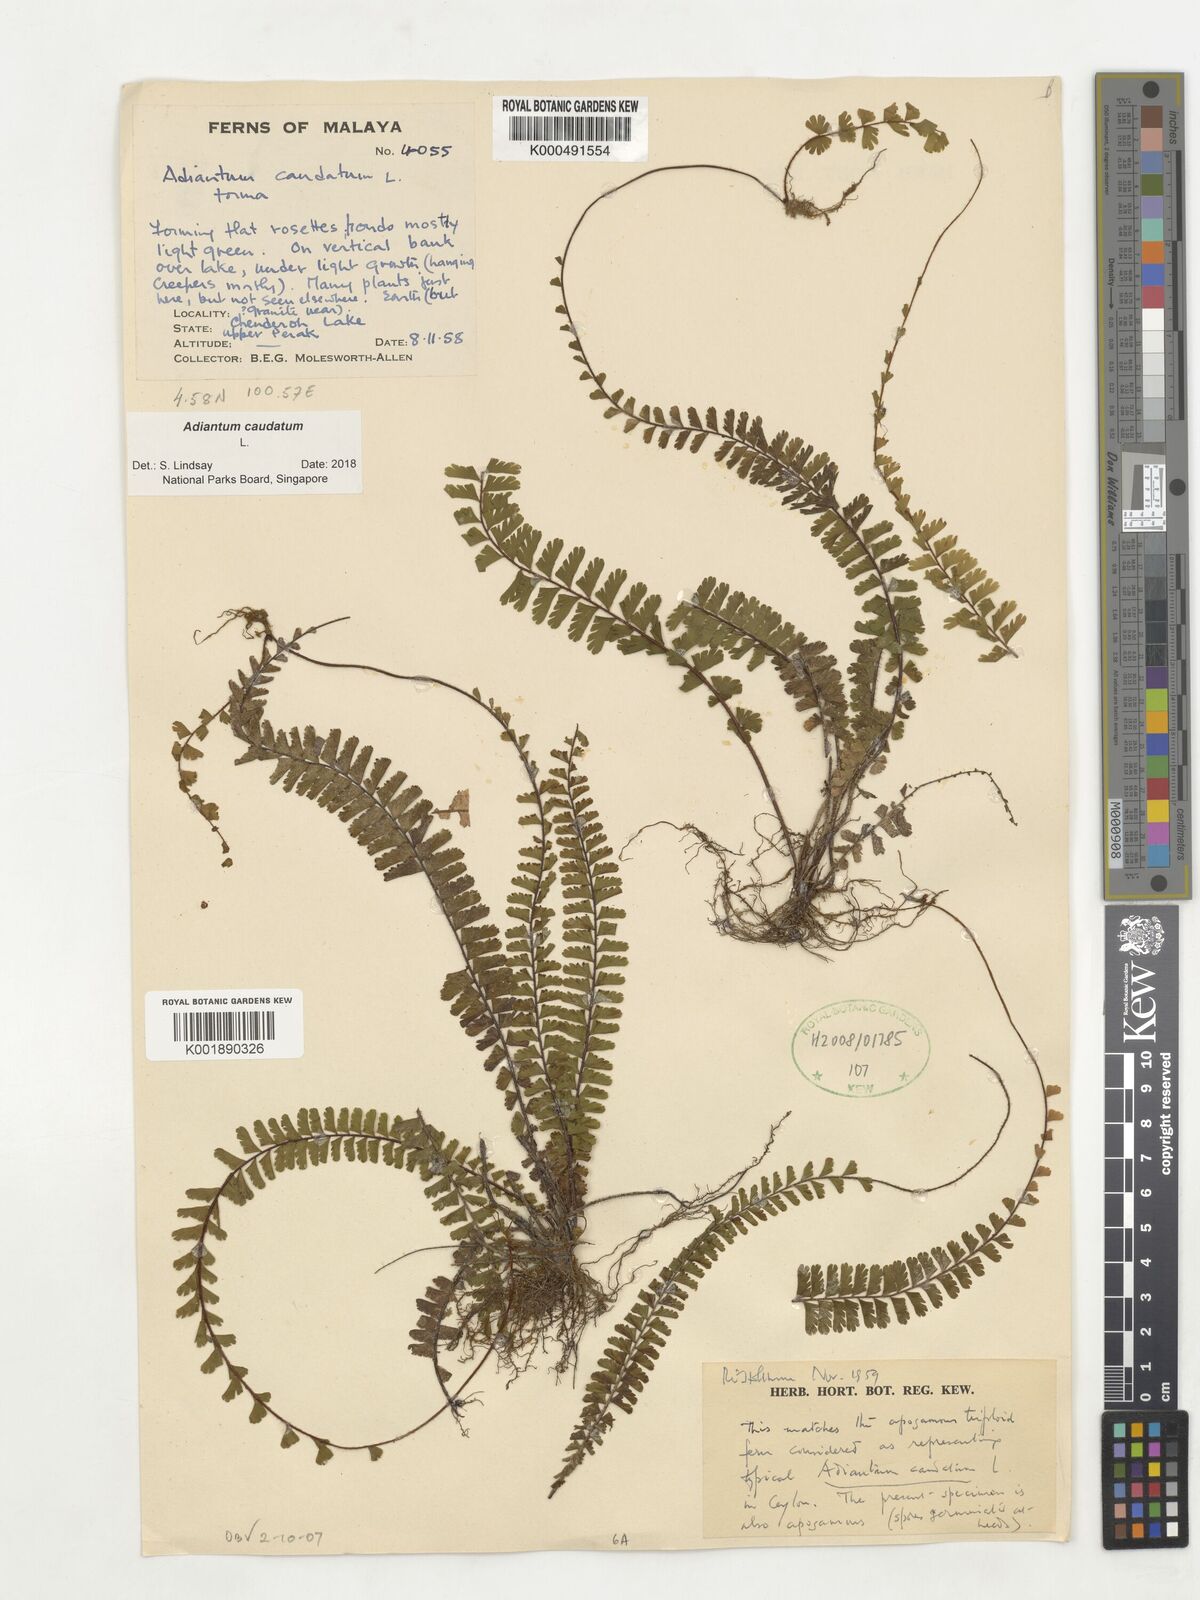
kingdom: Plantae
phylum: Tracheophyta
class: Polypodiopsida
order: Polypodiales
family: Pteridaceae
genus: Adiantum
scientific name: Adiantum caudatum
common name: Tailed maidenhair
